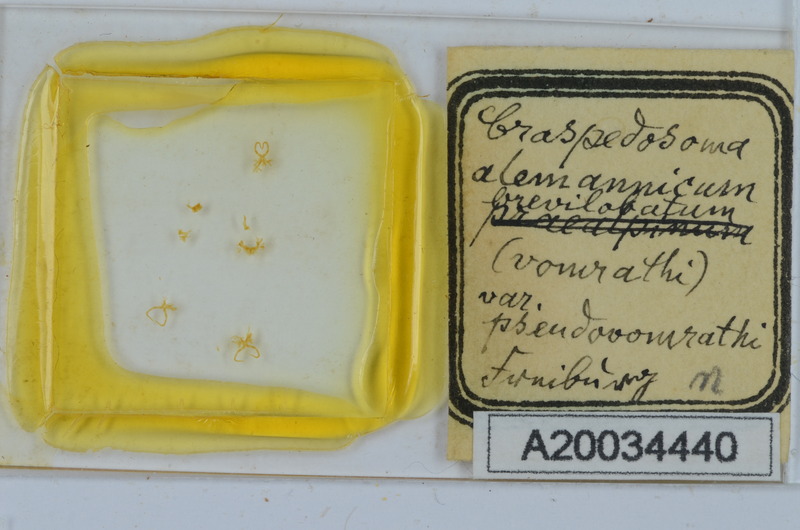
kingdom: Animalia
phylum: Arthropoda
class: Diplopoda
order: Chordeumatida
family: Craspedosomatidae
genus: Craspedosoma
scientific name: Craspedosoma rawlinsii
